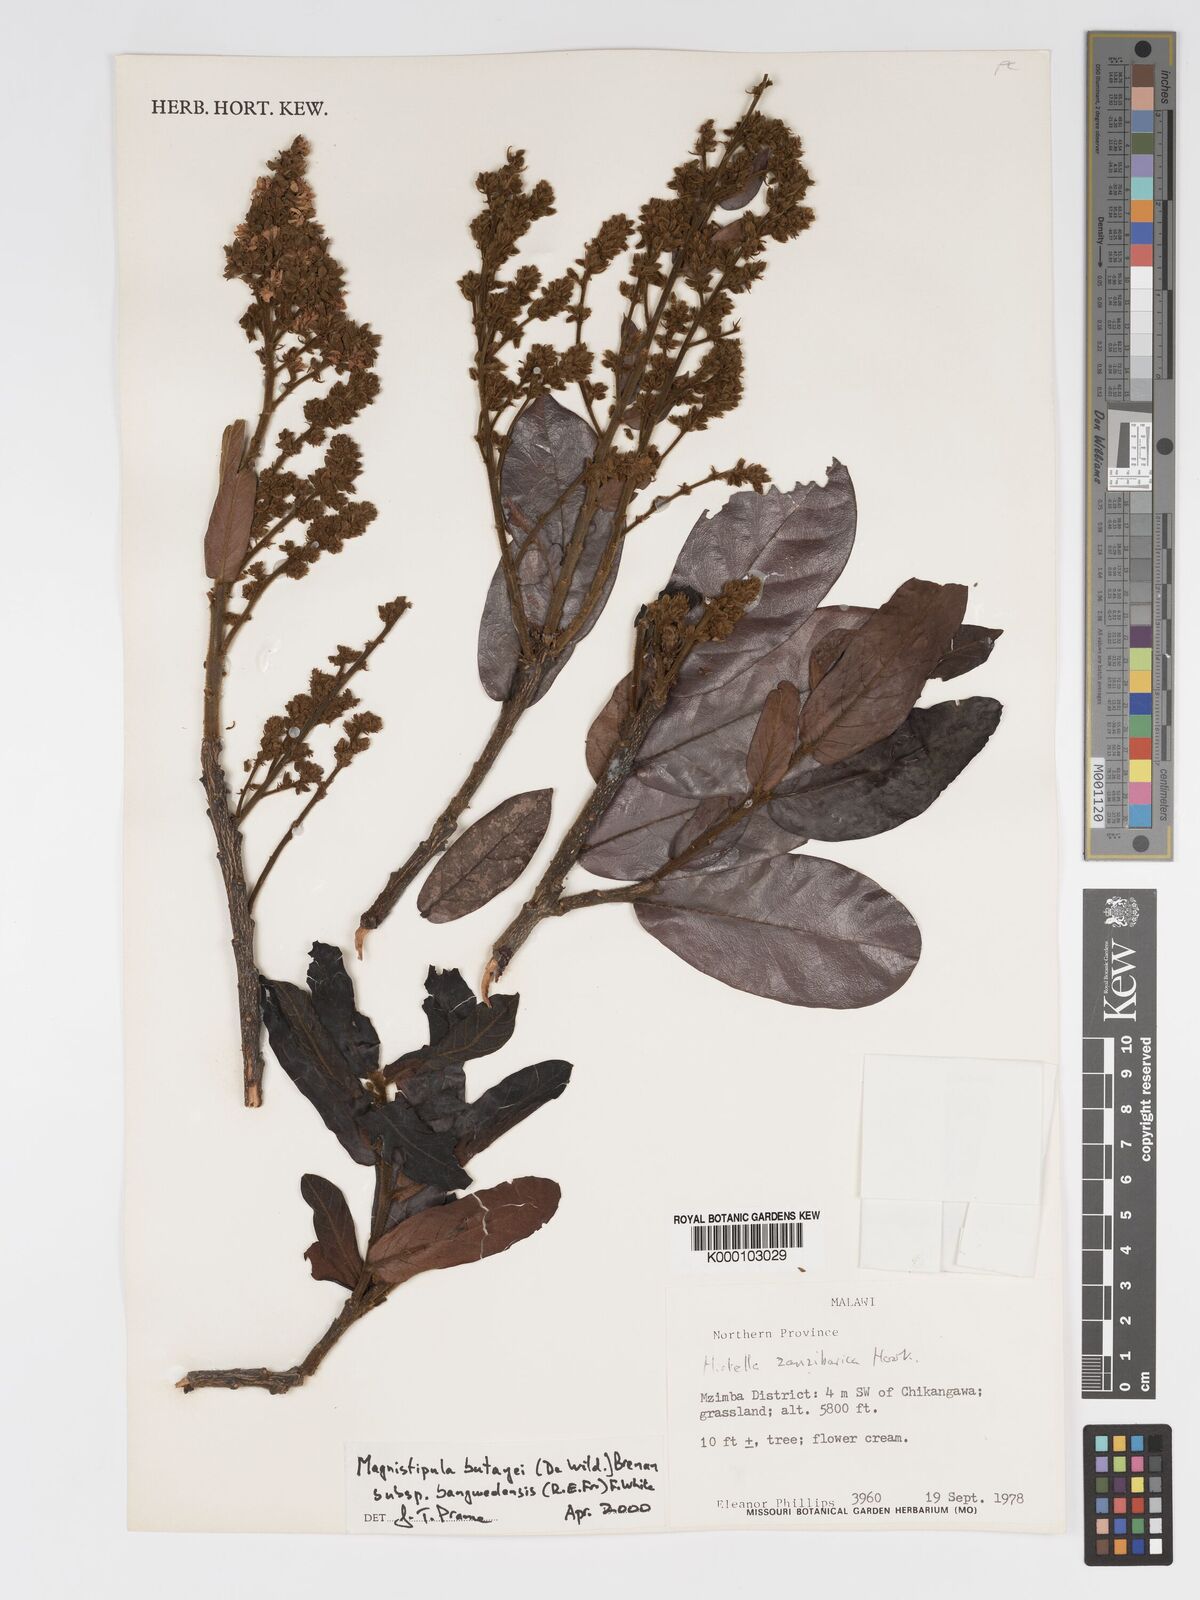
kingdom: Plantae
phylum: Tracheophyta
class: Magnoliopsida
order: Malpighiales
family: Chrysobalanaceae
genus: Magnistipula
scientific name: Magnistipula butayei
